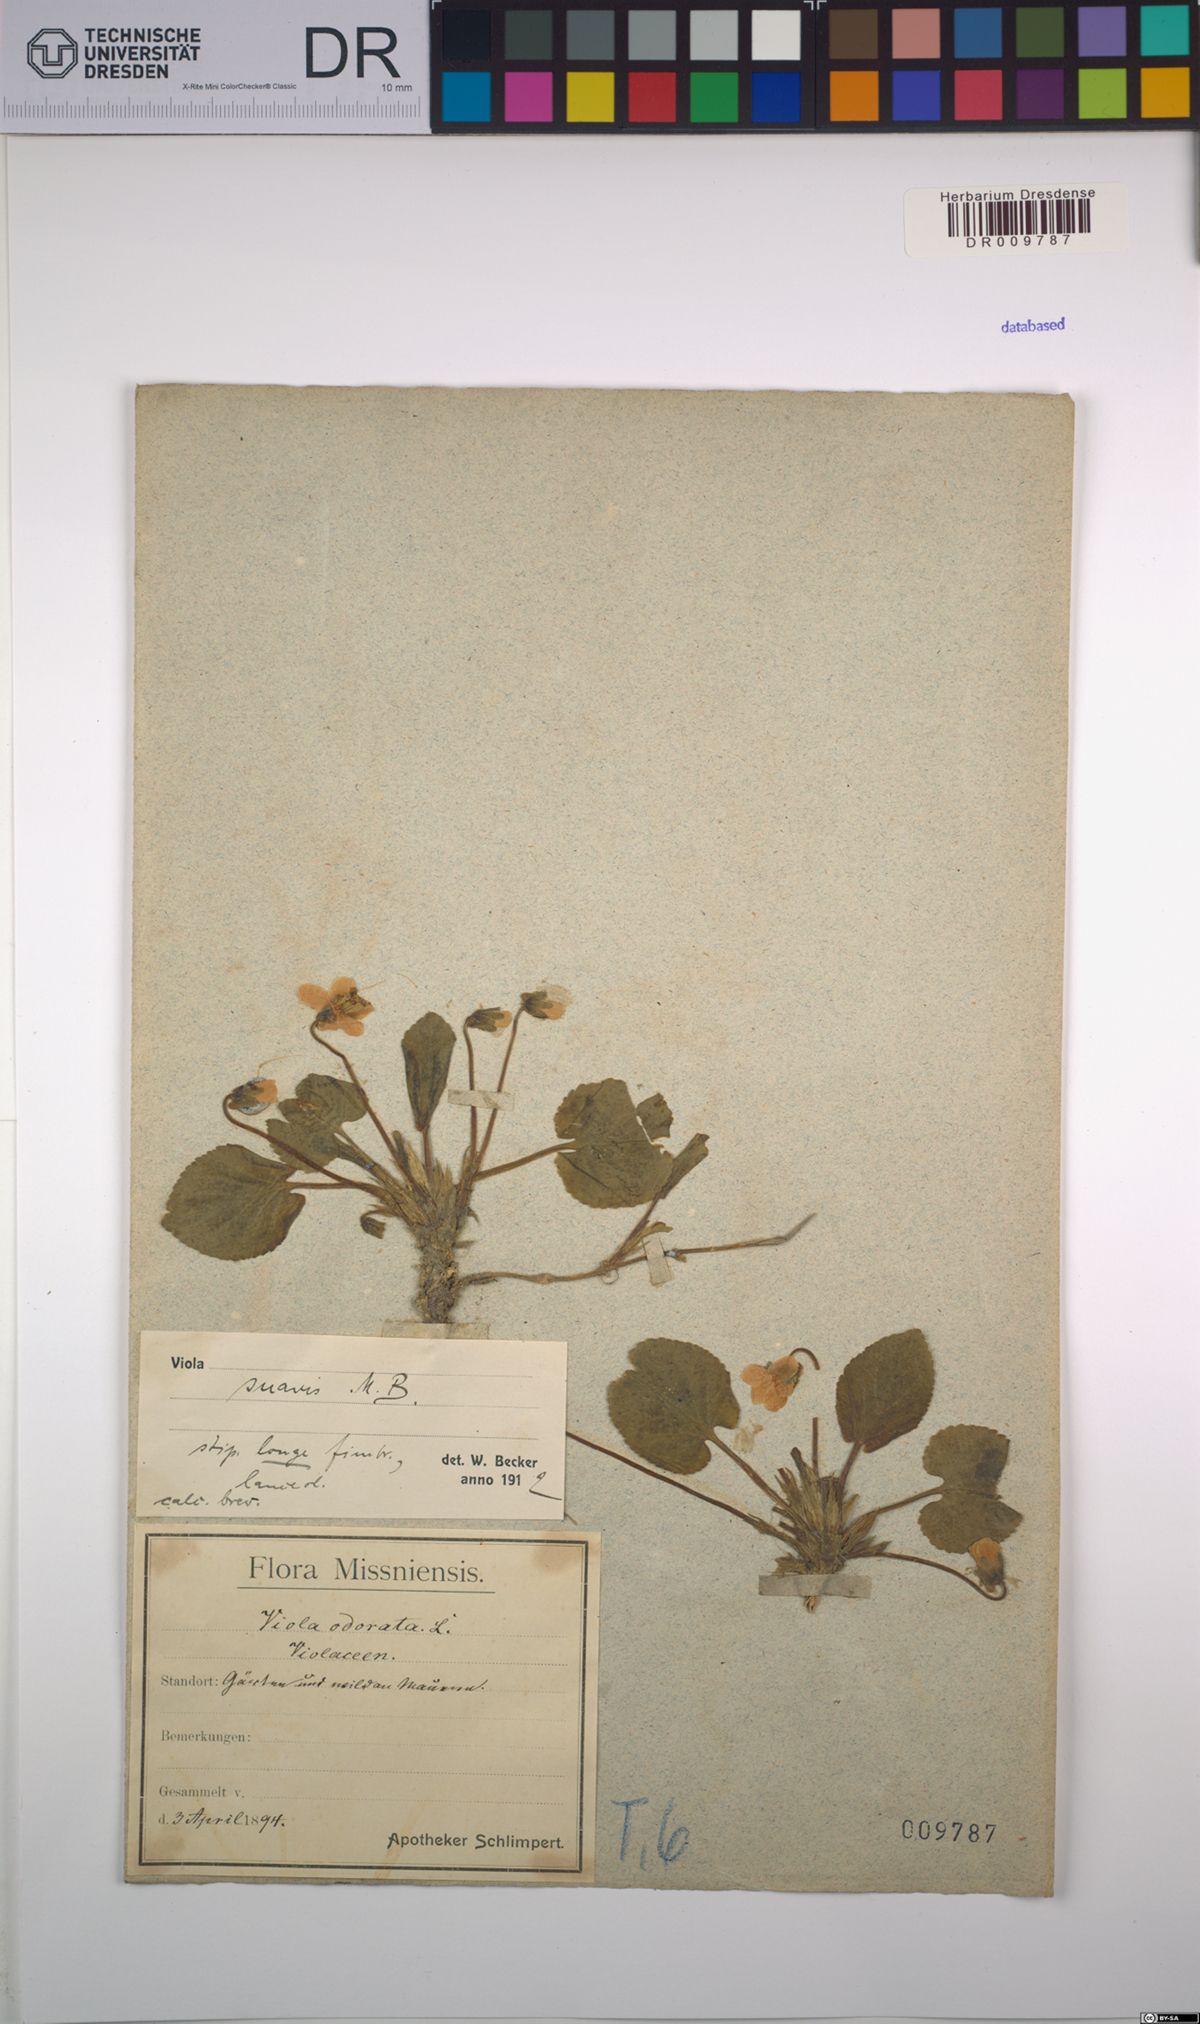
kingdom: Plantae
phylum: Tracheophyta
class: Magnoliopsida
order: Malpighiales
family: Violaceae
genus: Viola
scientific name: Viola suavis
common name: Russian violet
